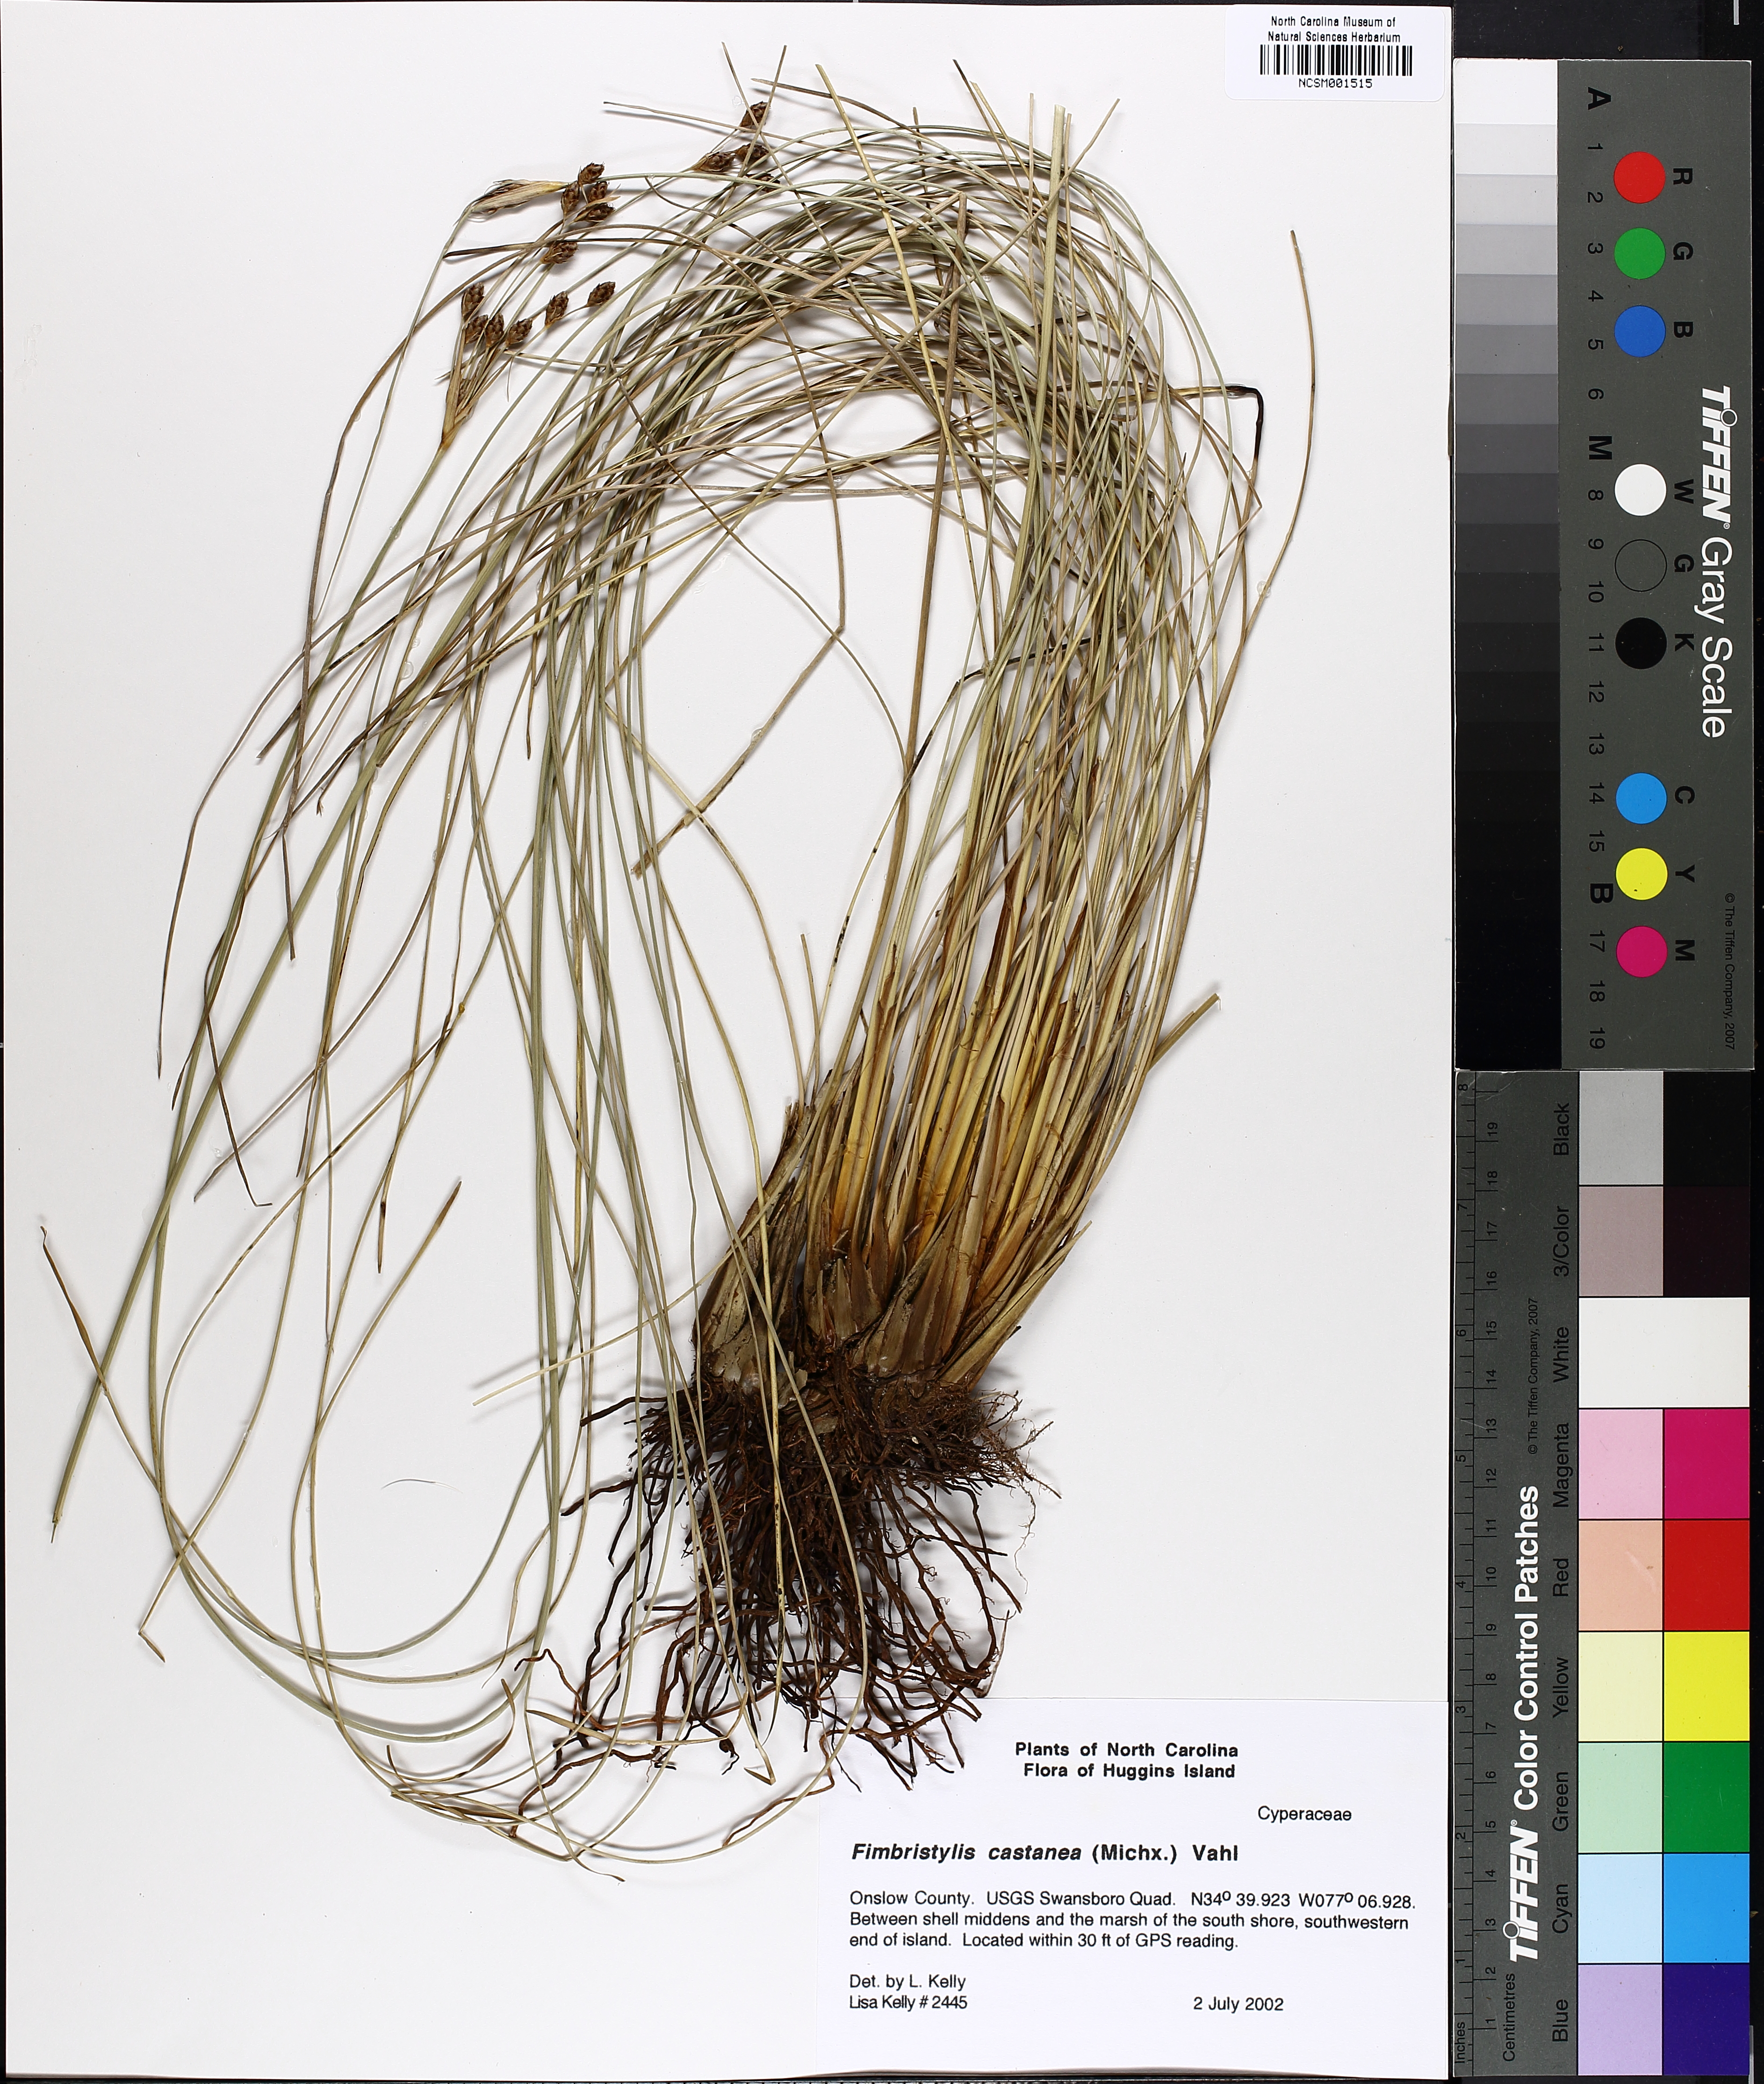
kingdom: Plantae
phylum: Tracheophyta
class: Liliopsida
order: Poales
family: Cyperaceae
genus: Fimbristylis
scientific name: Fimbristylis spadicea
